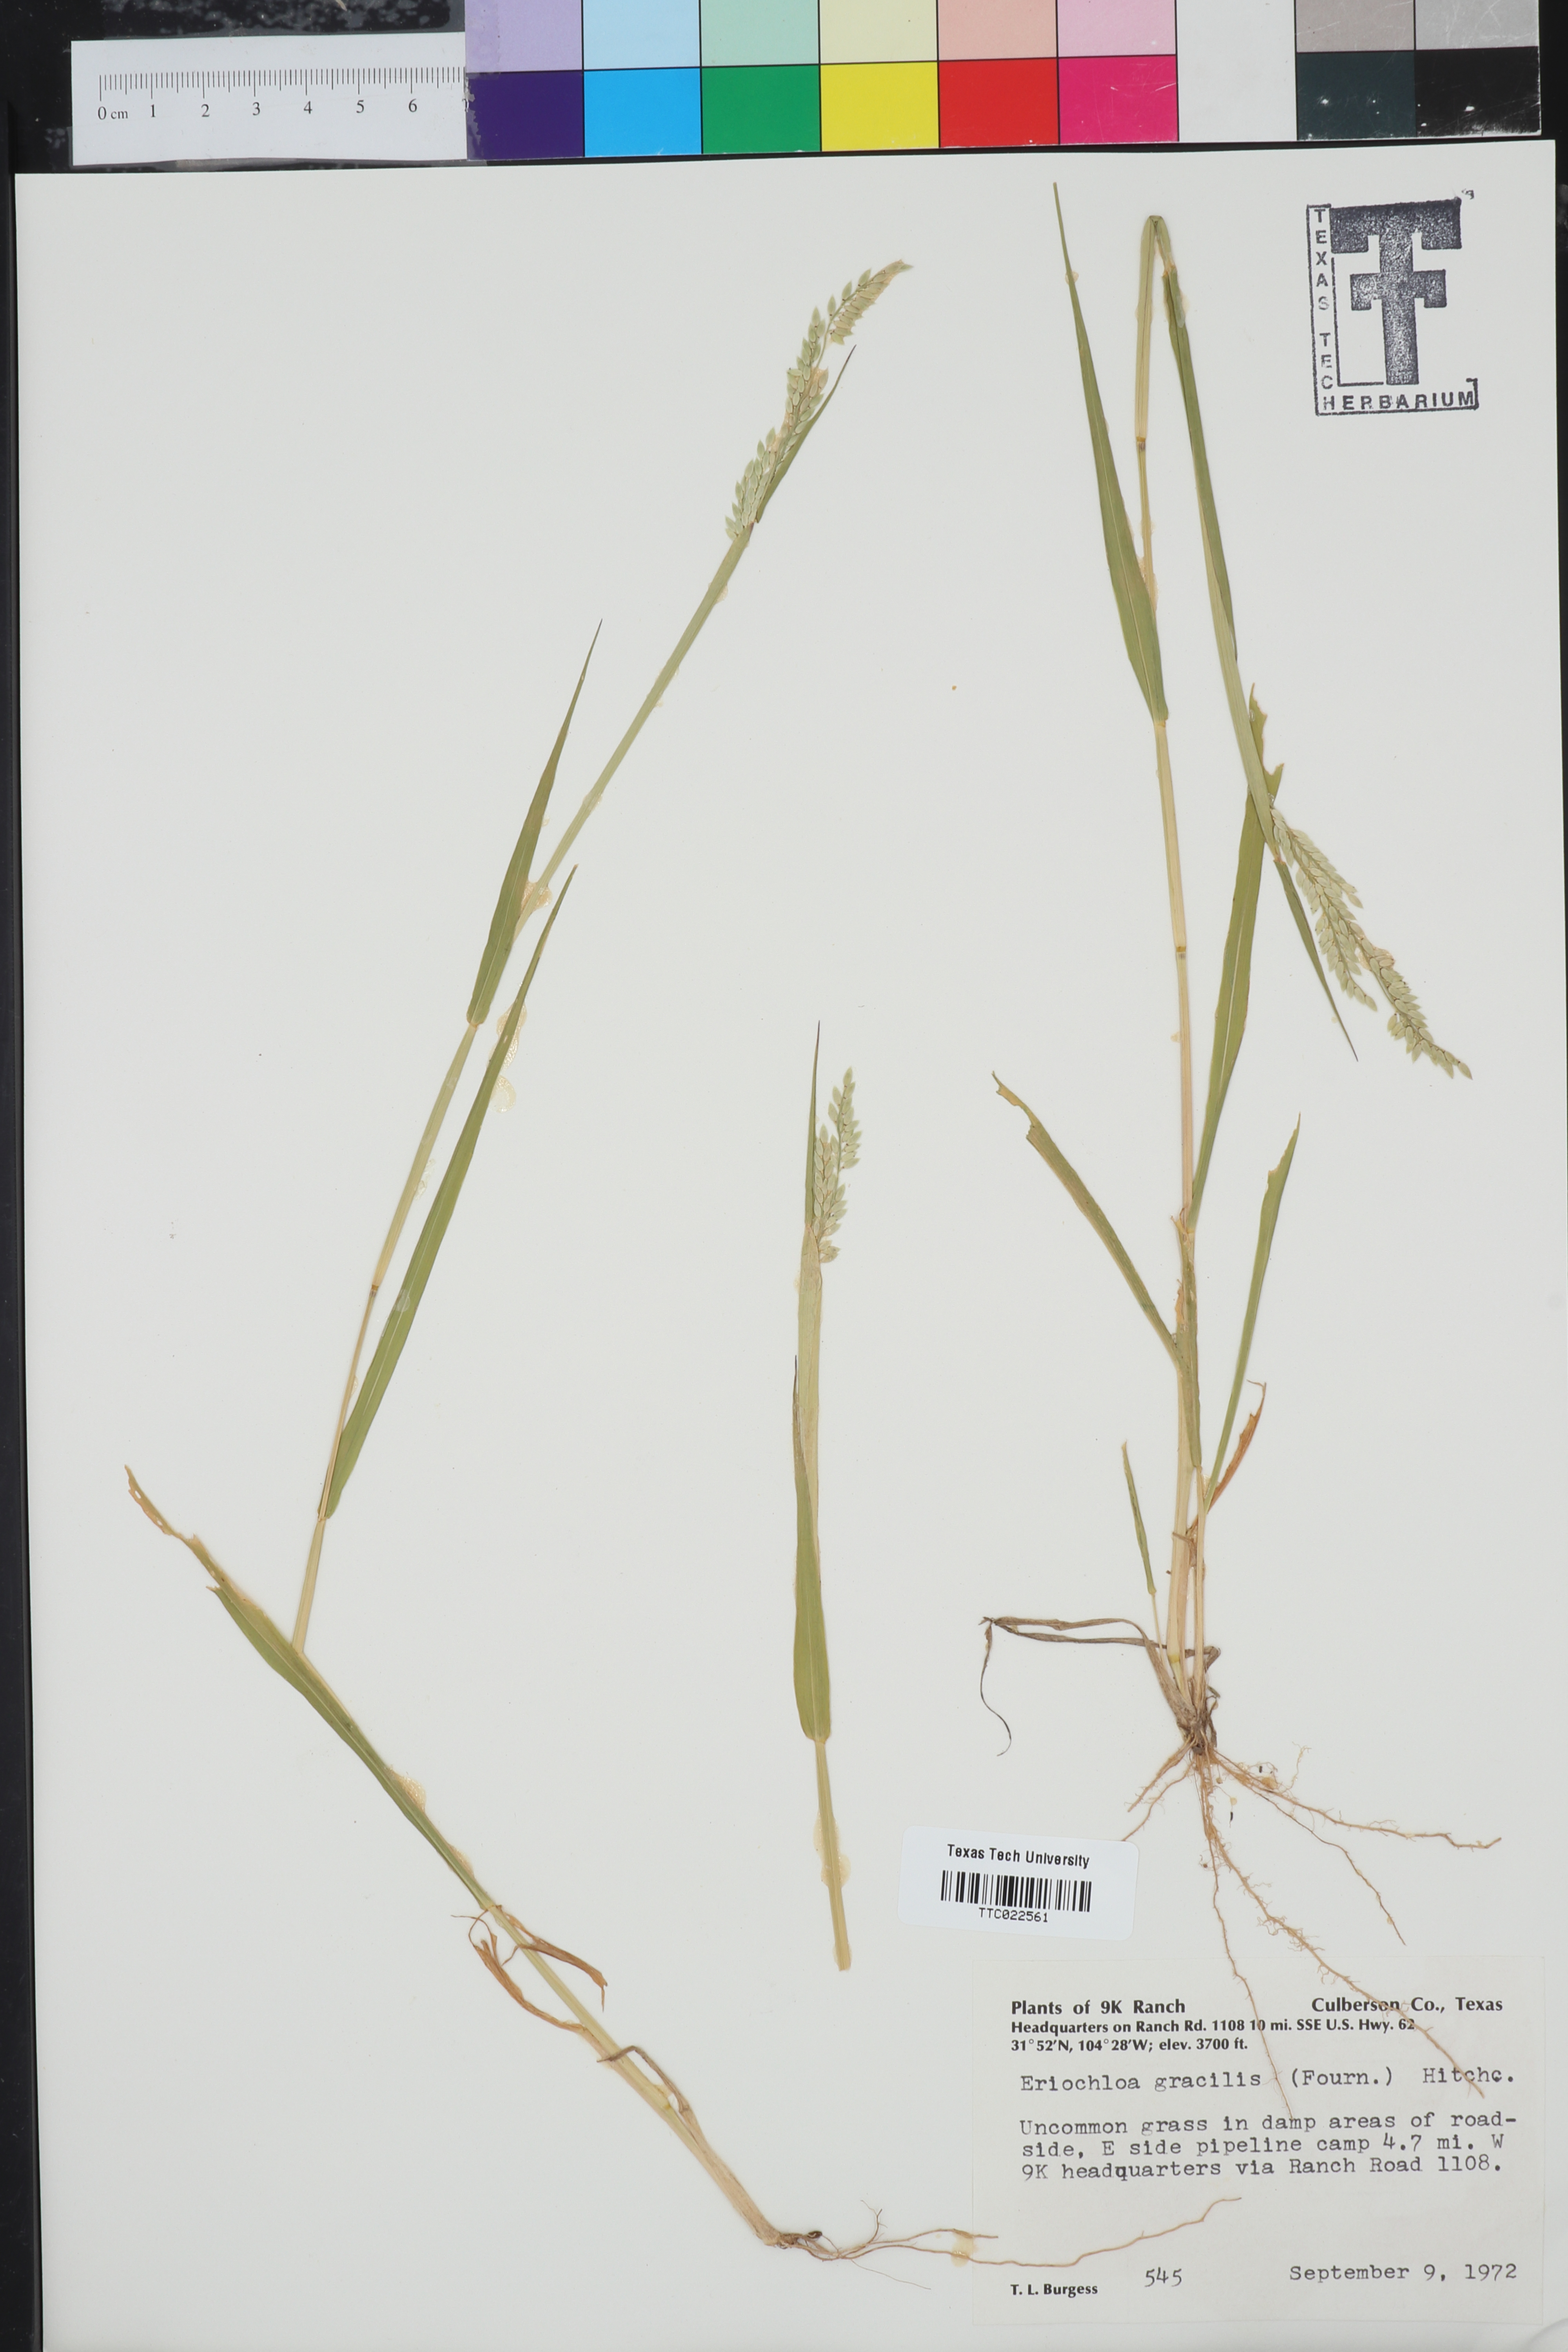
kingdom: Plantae
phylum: Tracheophyta
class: Liliopsida
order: Poales
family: Poaceae
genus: Eriochloa
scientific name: Eriochloa acuminata
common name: Southwestern cup grass
